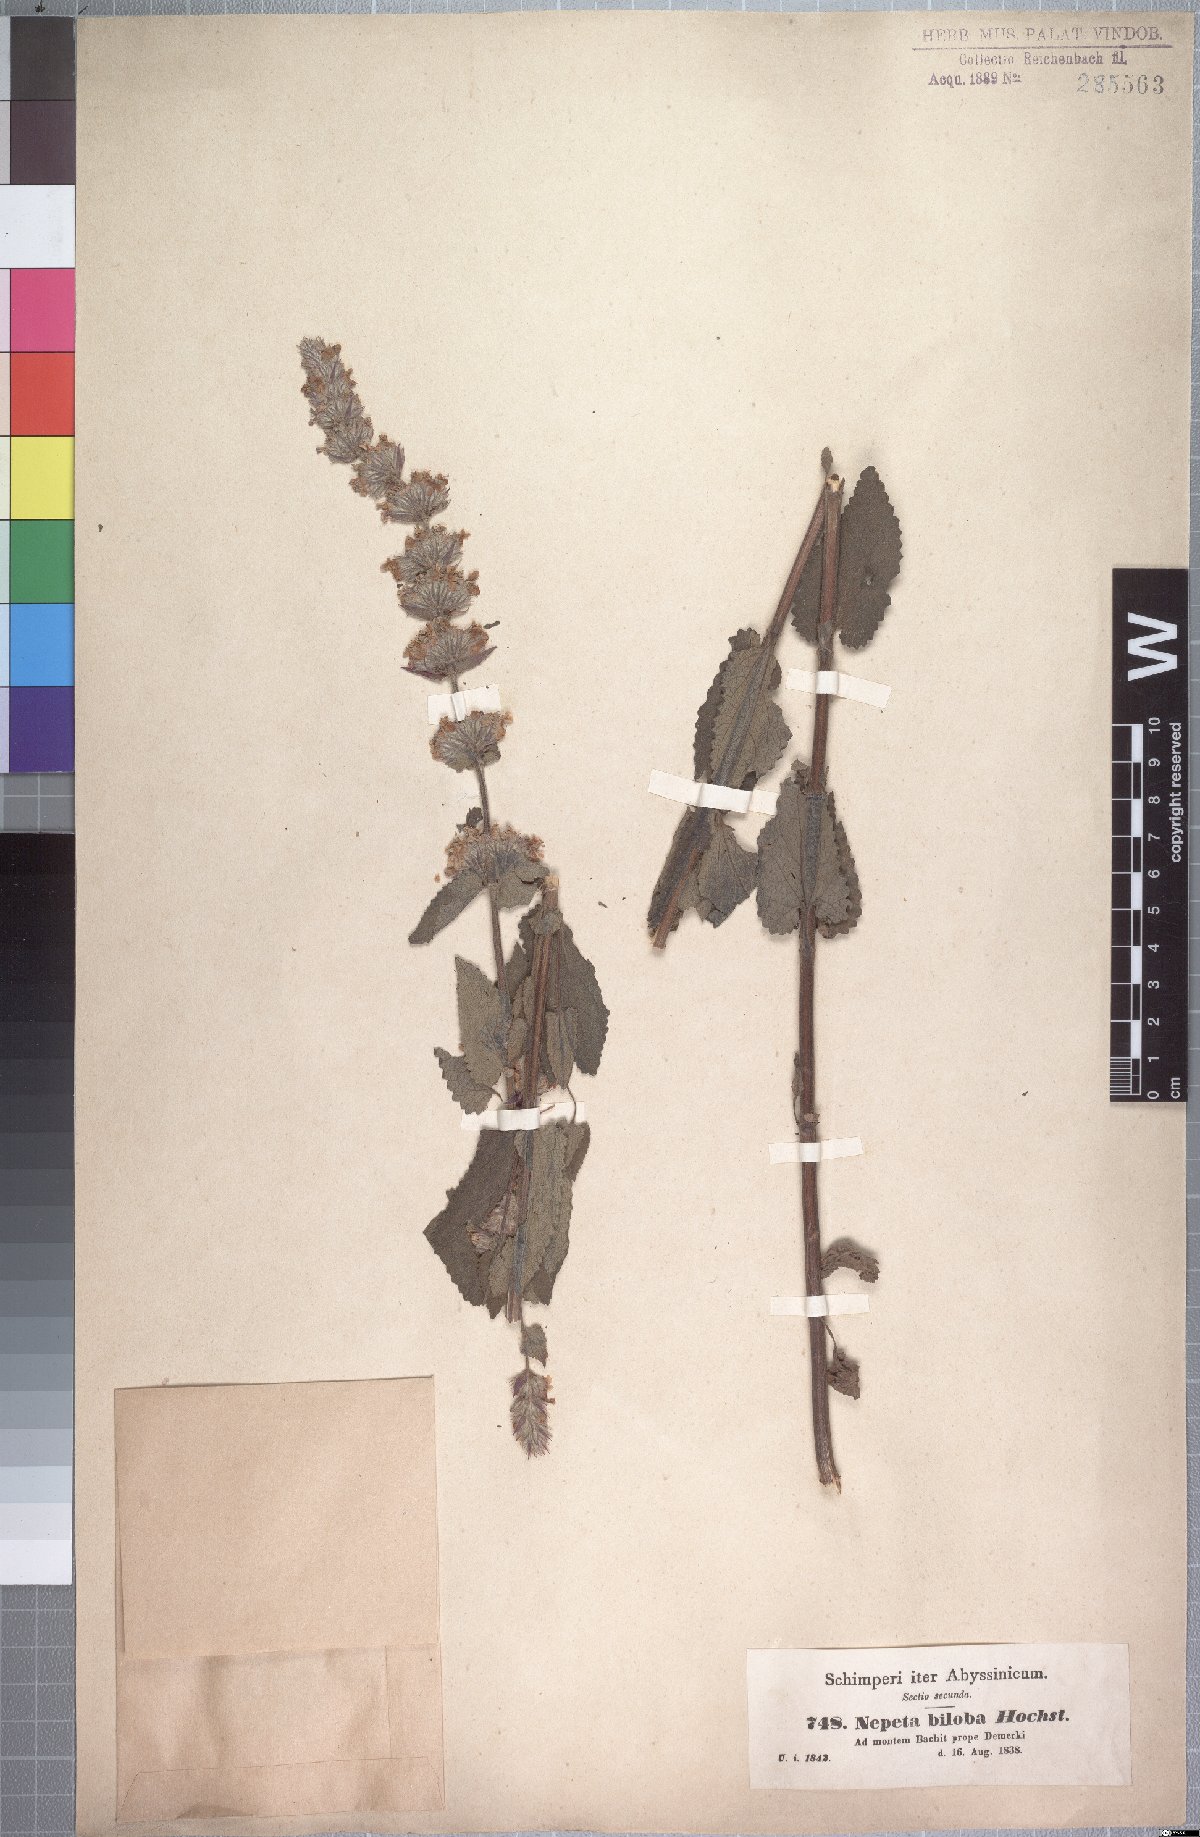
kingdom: Plantae
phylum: Tracheophyta
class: Magnoliopsida
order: Lamiales
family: Lamiaceae
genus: Nepeta
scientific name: Nepeta azurea
